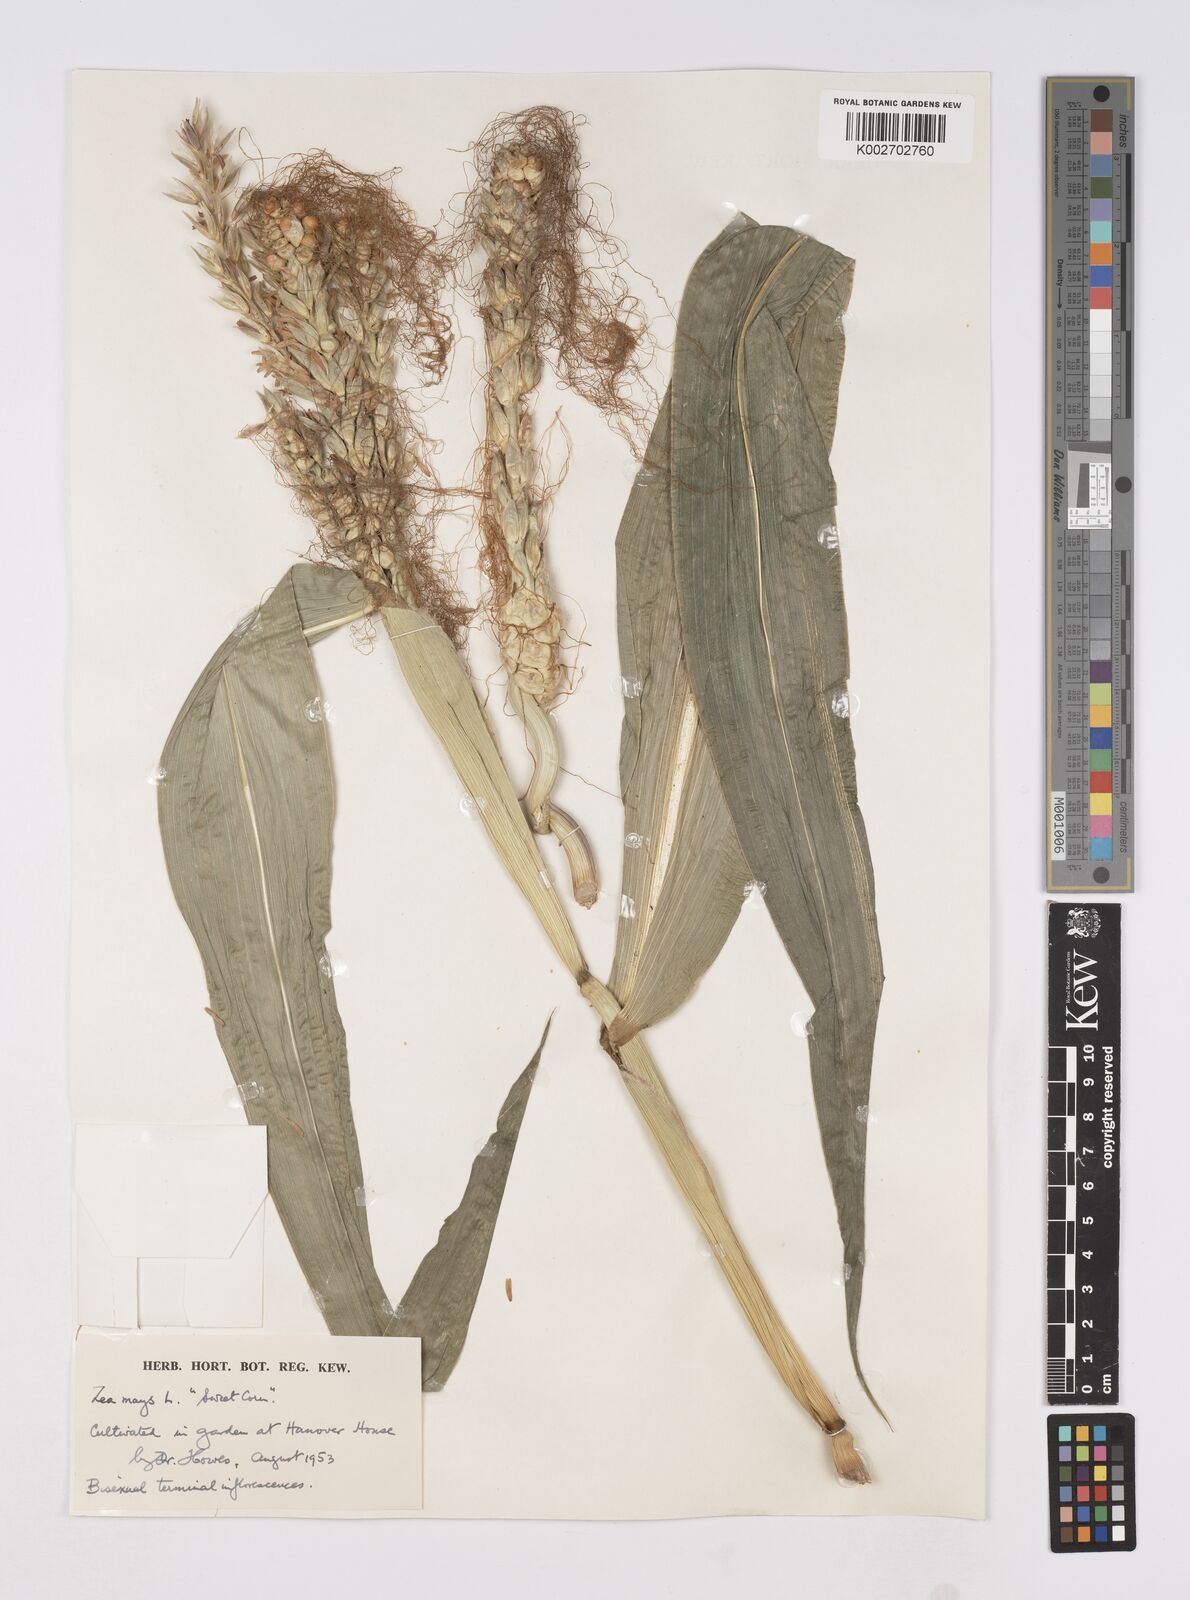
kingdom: Plantae
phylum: Tracheophyta
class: Liliopsida
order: Poales
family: Poaceae
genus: Zea
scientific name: Zea mays
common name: Maize
